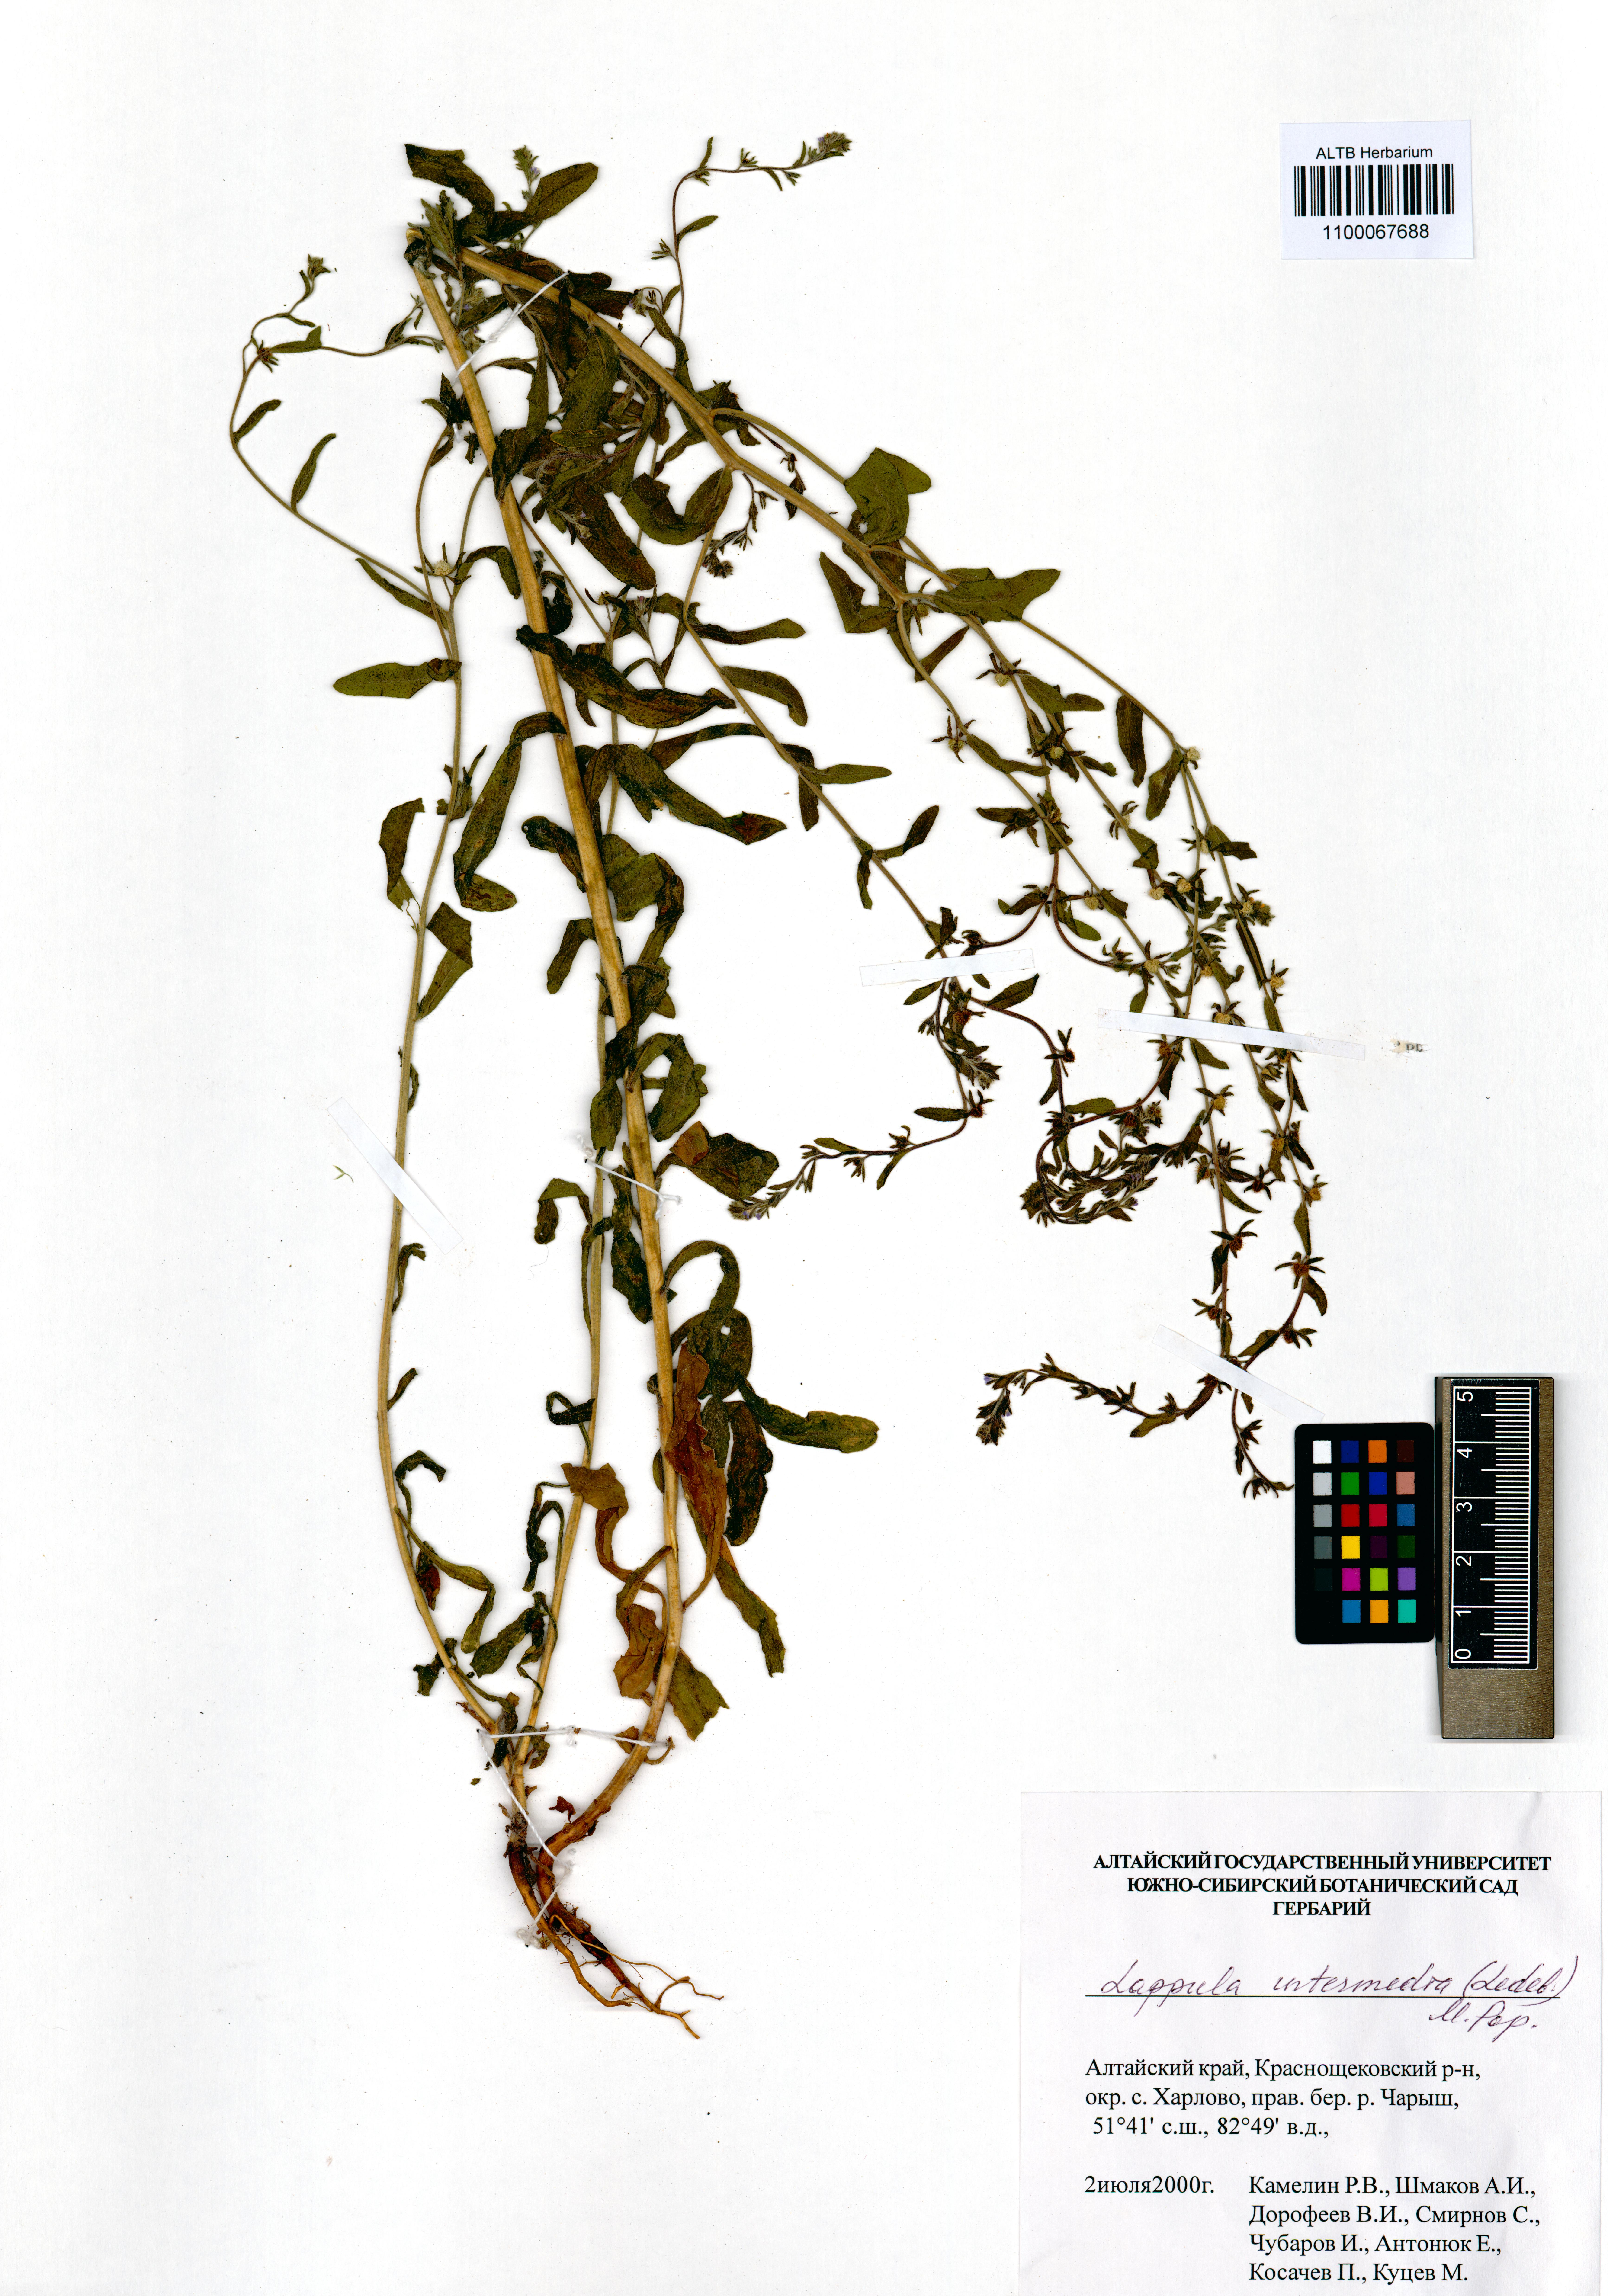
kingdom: Plantae
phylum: Tracheophyta
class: Magnoliopsida
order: Boraginales
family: Boraginaceae
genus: Lappula
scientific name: Lappula intermedia
